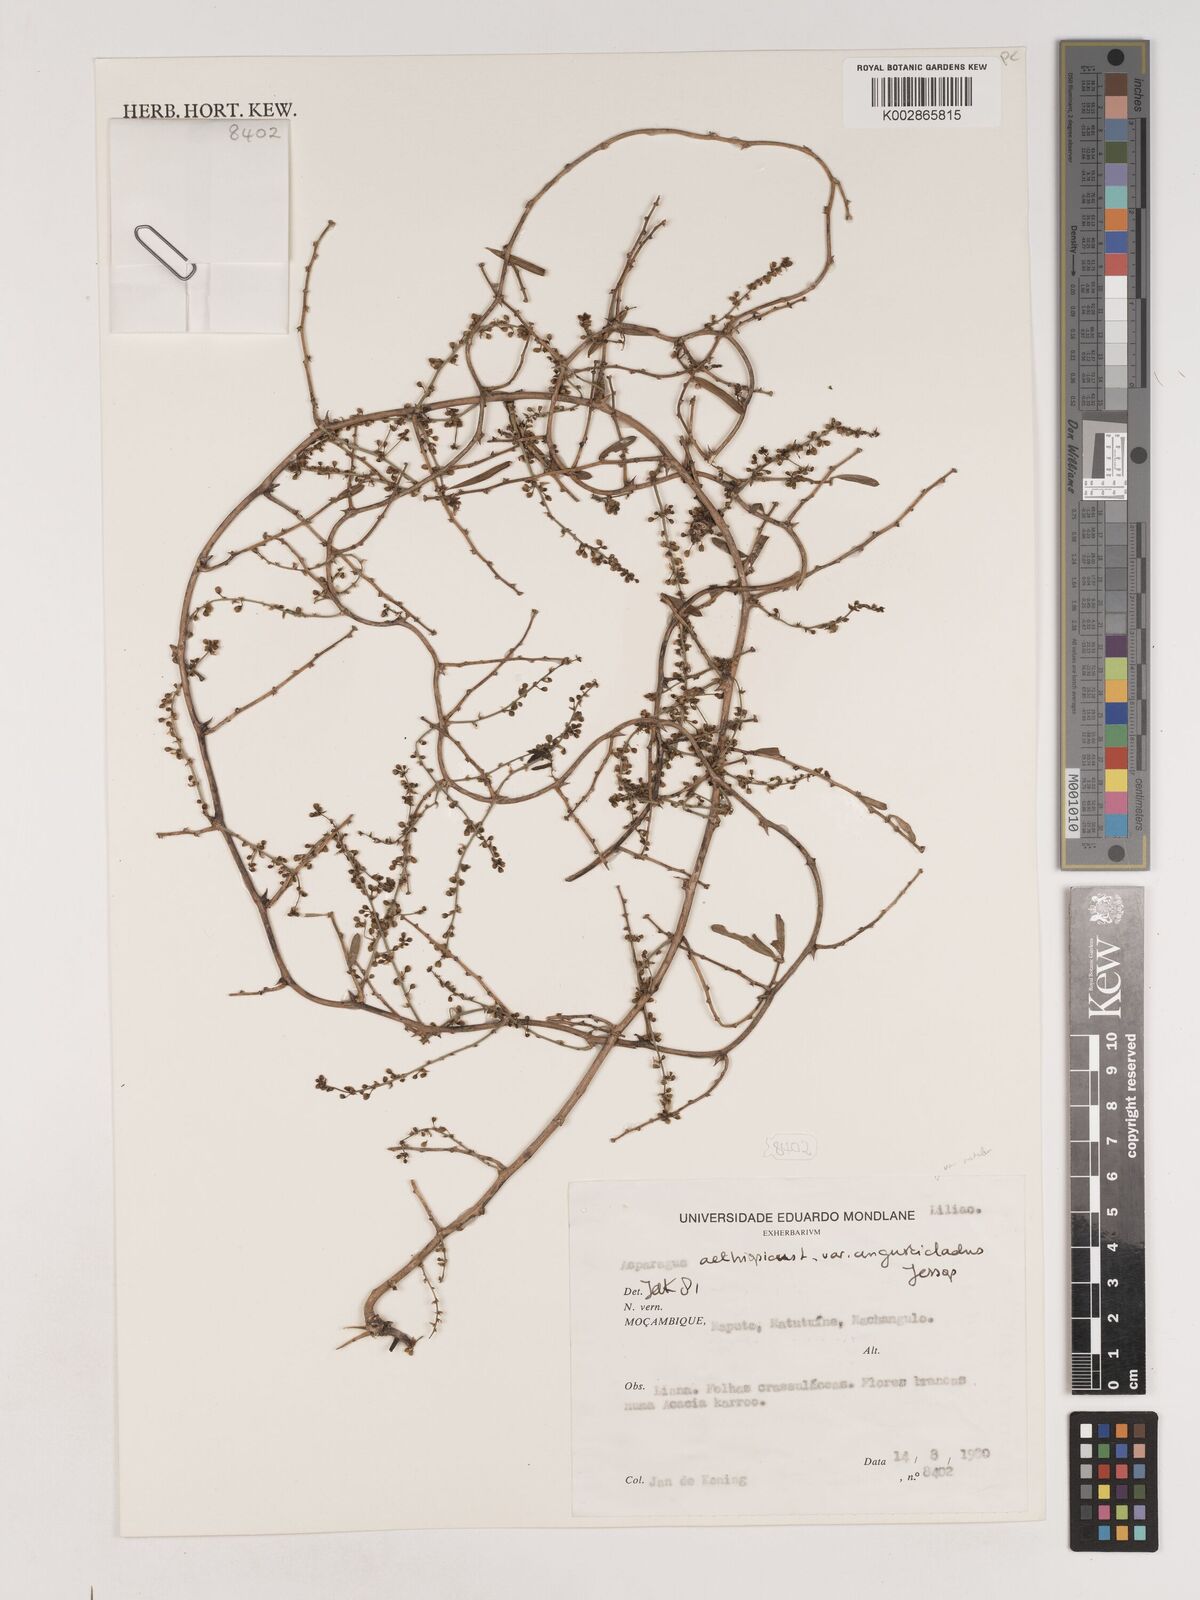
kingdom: Plantae
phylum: Tracheophyta
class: Liliopsida
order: Asparagales
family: Asparagaceae
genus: Asparagus
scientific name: Asparagus aethiopicus
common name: Sprenger's asparagus fern
